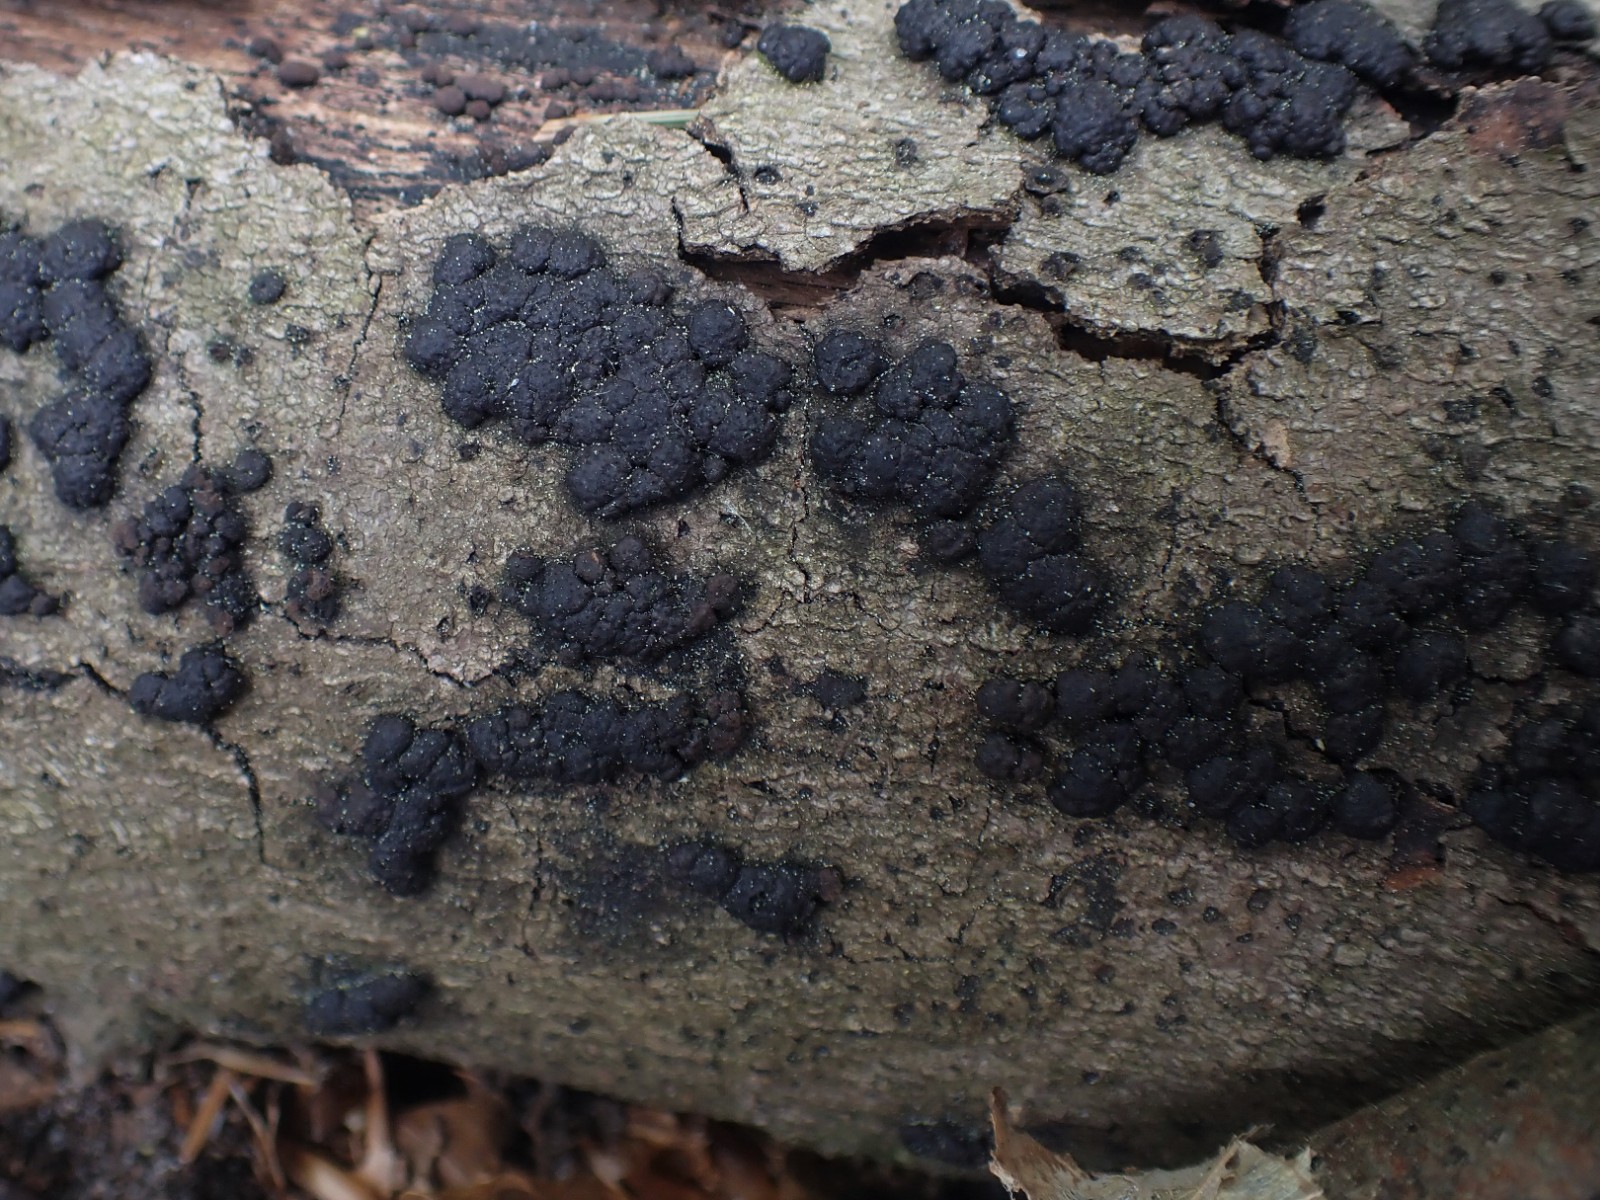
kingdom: Fungi
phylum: Ascomycota
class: Sordariomycetes
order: Xylariales
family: Hypoxylaceae
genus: Jackrogersella
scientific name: Jackrogersella cohaerens
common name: sammenflydende kulbær
